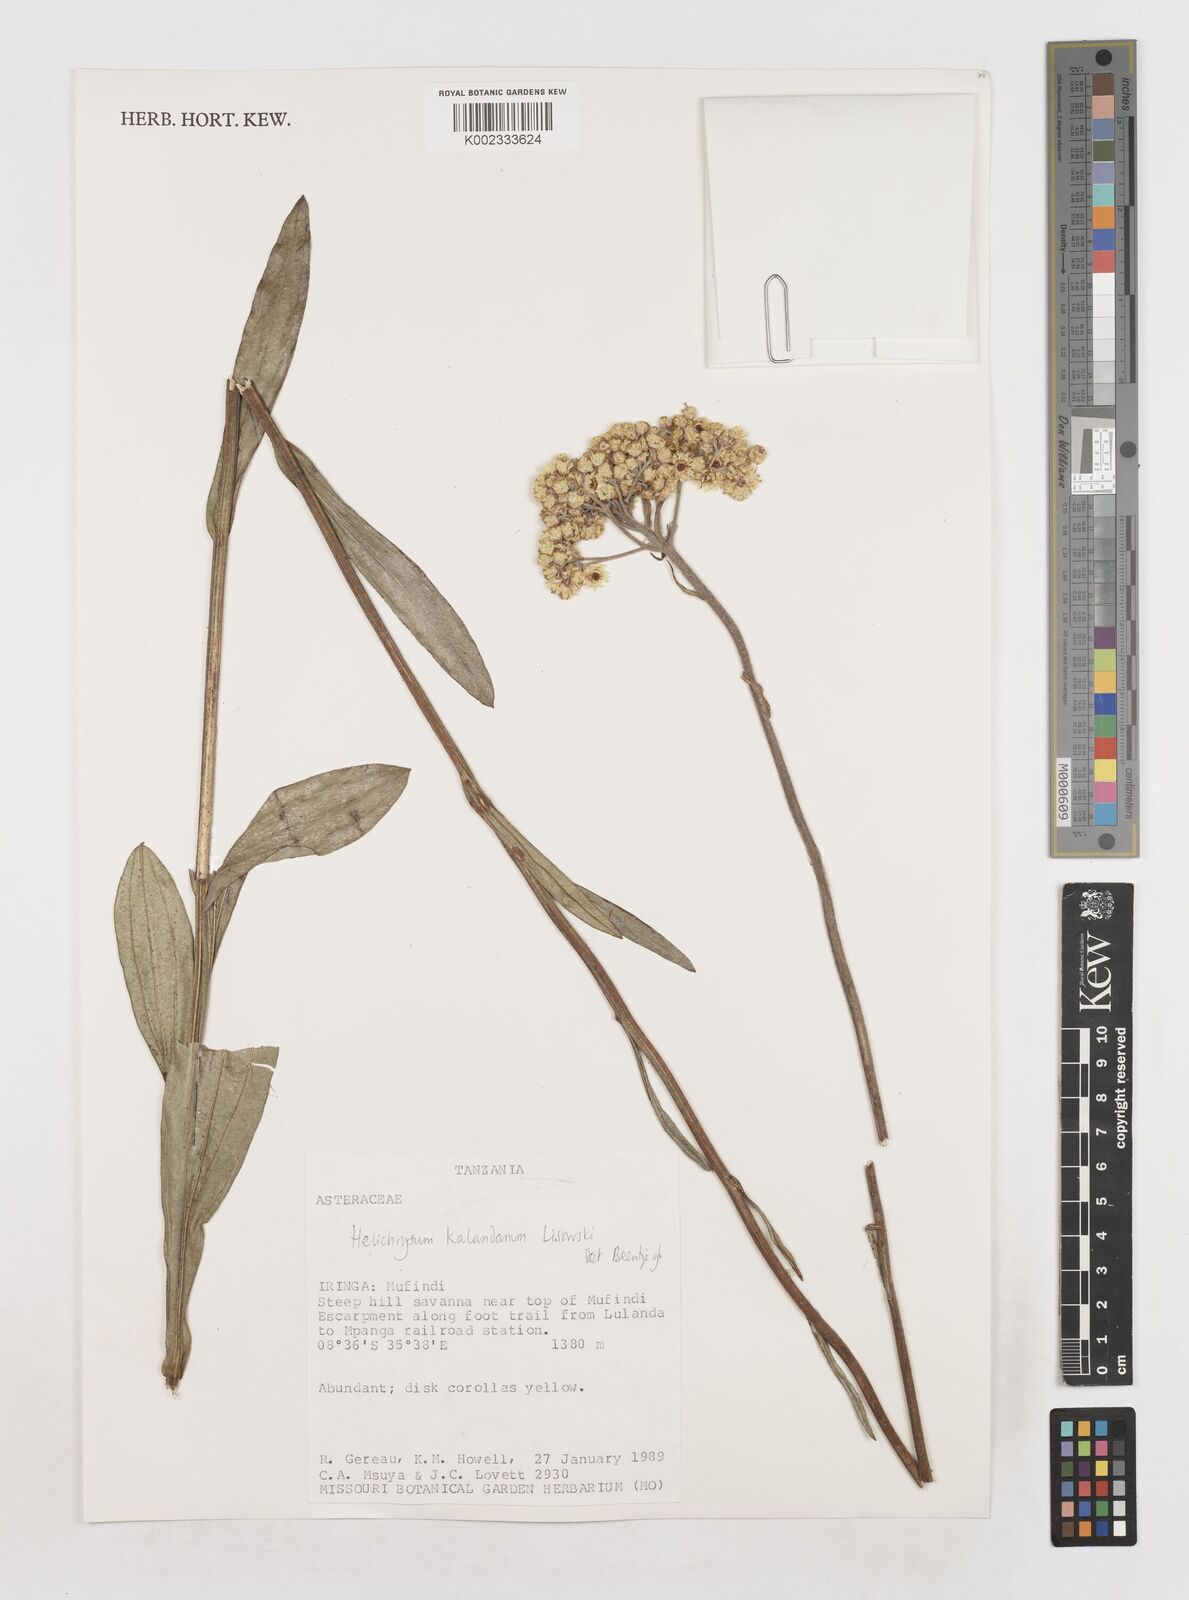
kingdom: Plantae
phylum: Tracheophyta
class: Magnoliopsida
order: Asterales
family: Asteraceae
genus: Helichrysum
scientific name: Helichrysum kalandanum
